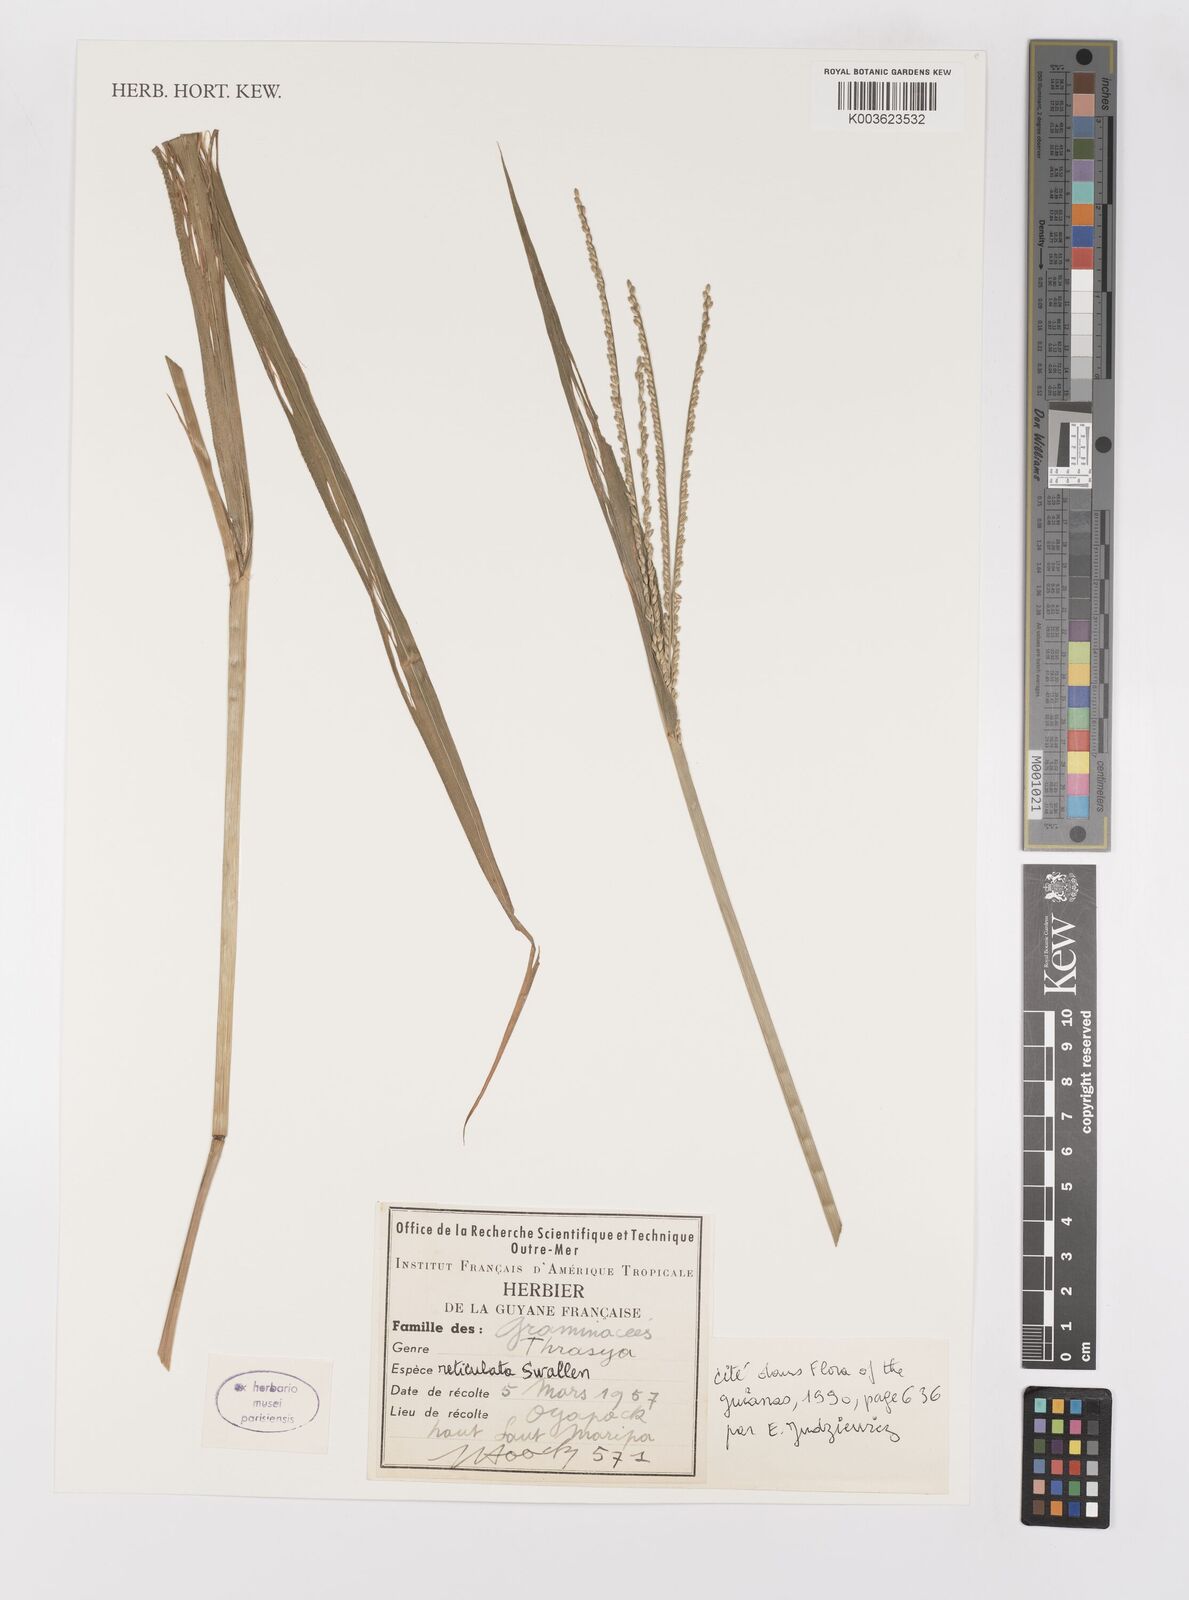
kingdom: Plantae
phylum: Tracheophyta
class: Liliopsida
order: Poales
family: Poaceae
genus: Paspalum
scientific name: Paspalum cinerascens
